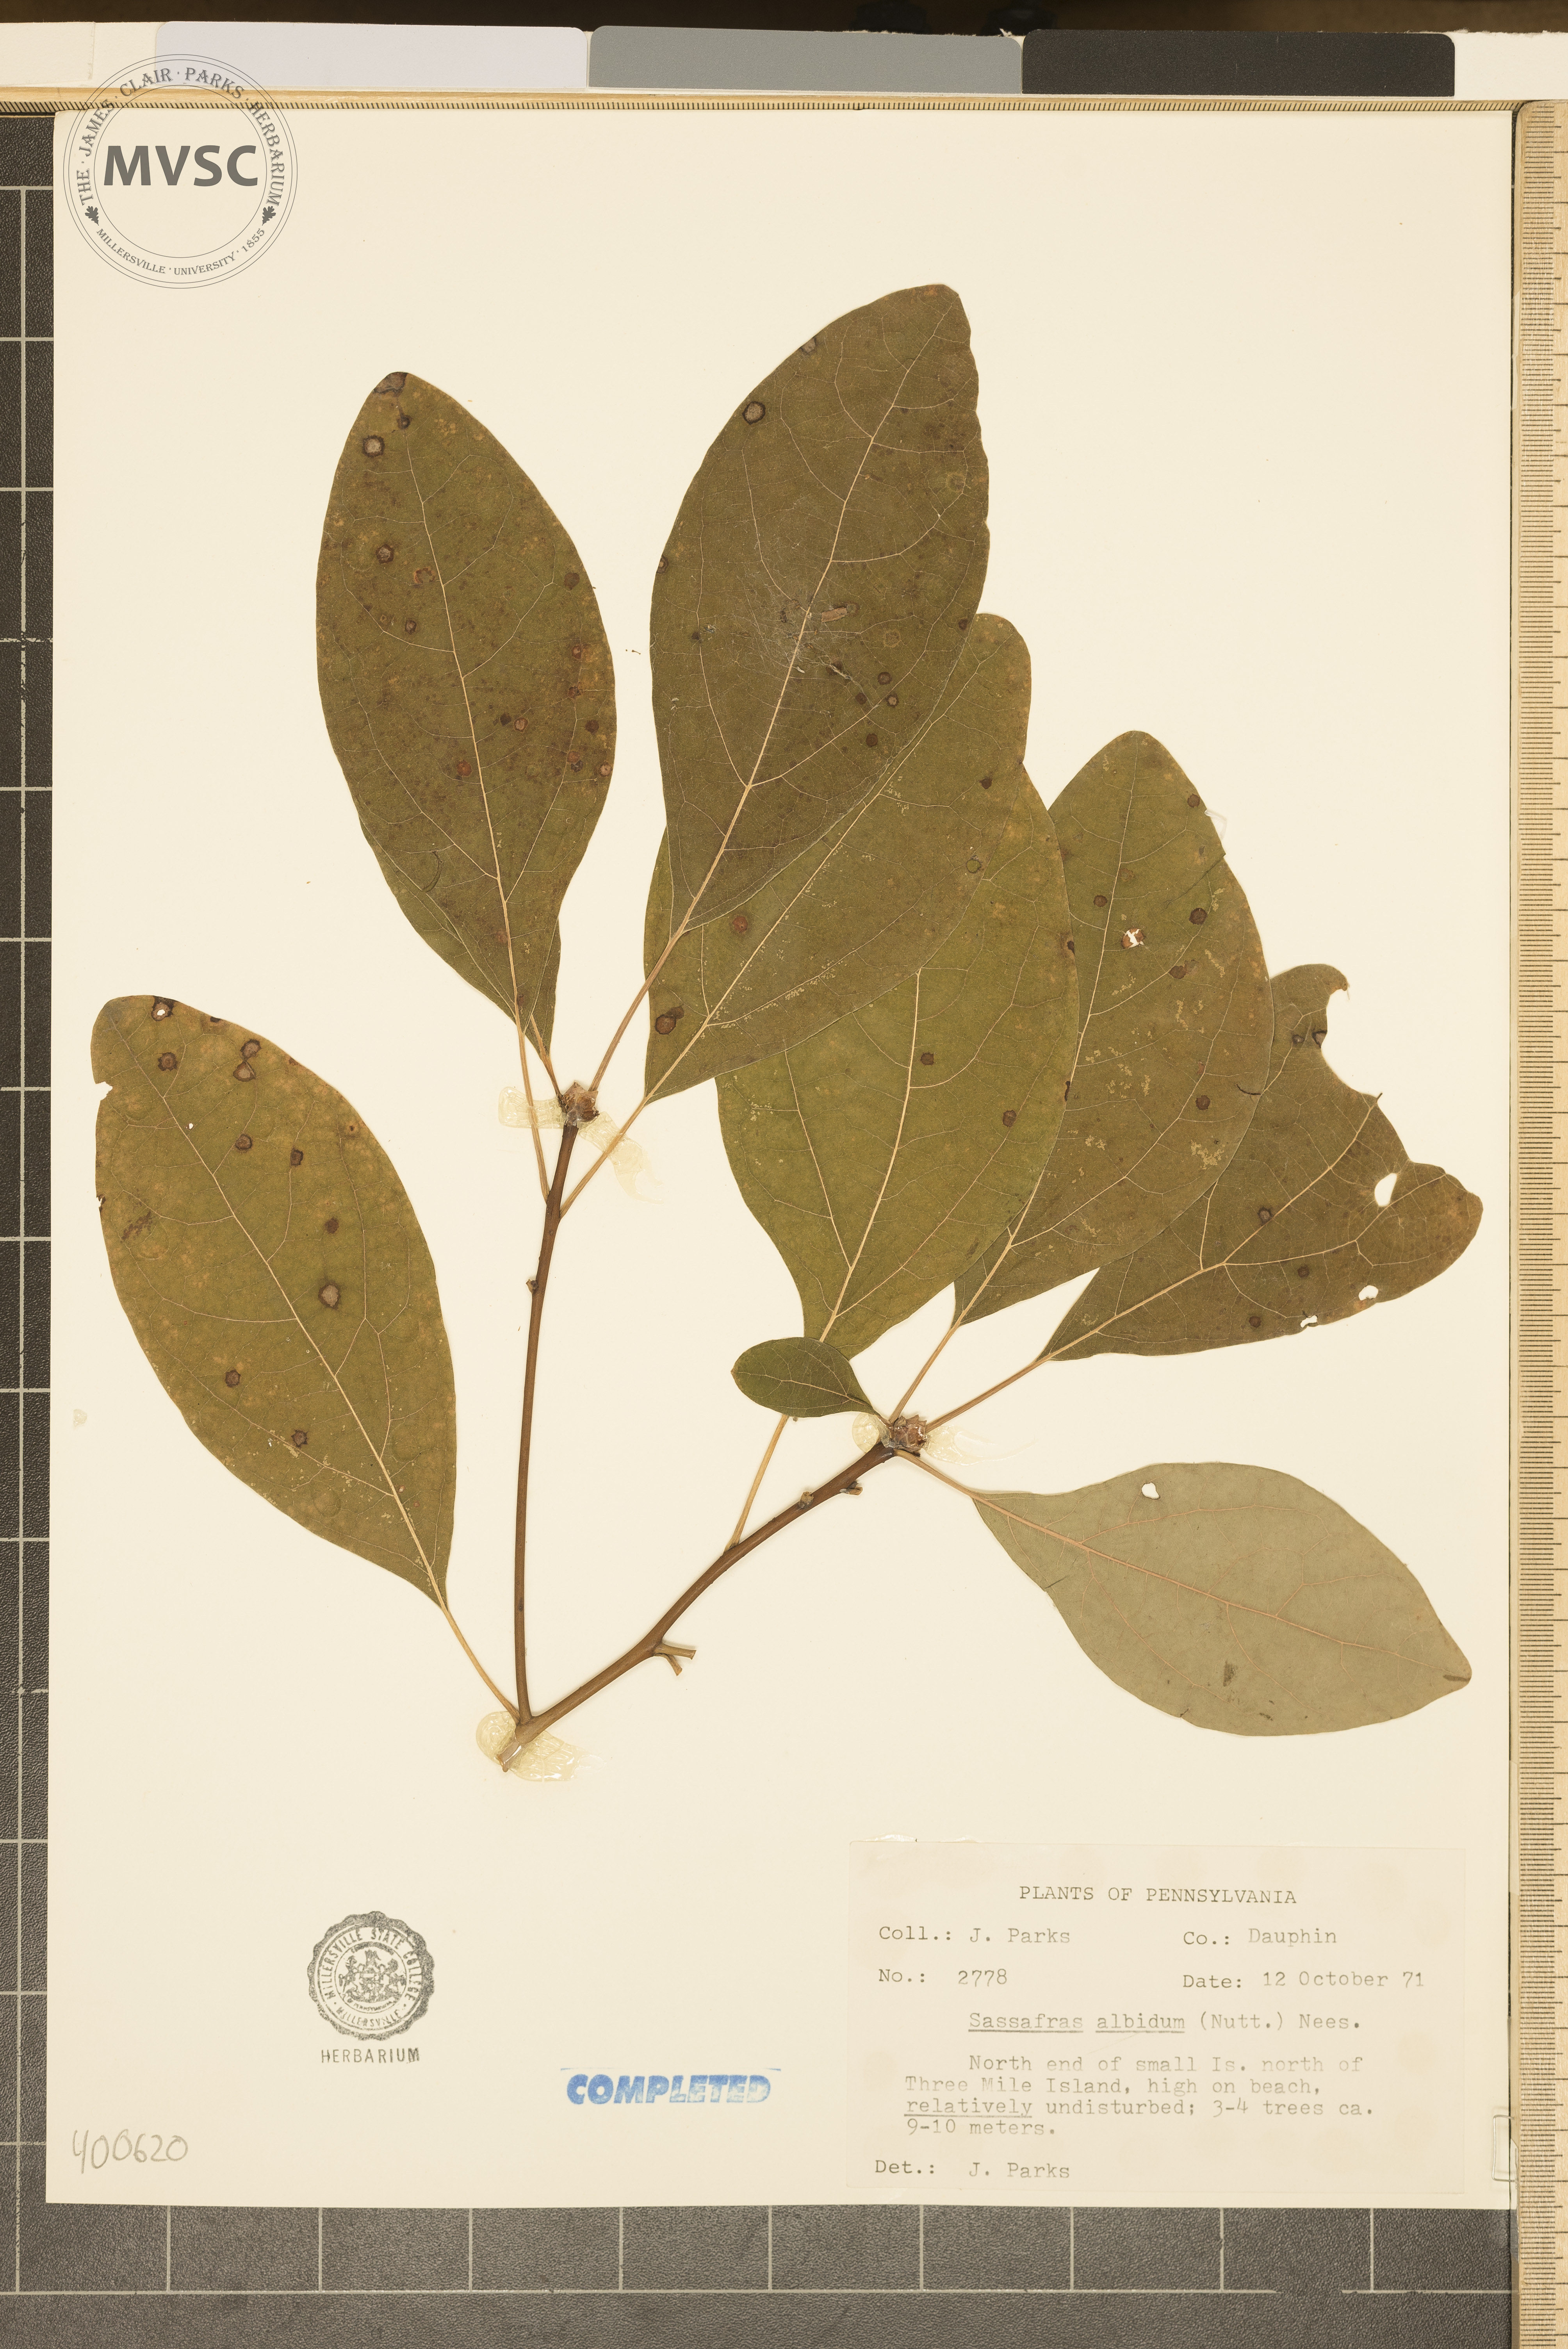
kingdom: Plantae
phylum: Tracheophyta
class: Magnoliopsida
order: Laurales
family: Lauraceae
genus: Sassafras
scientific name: Sassafras albidum
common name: sassafras
